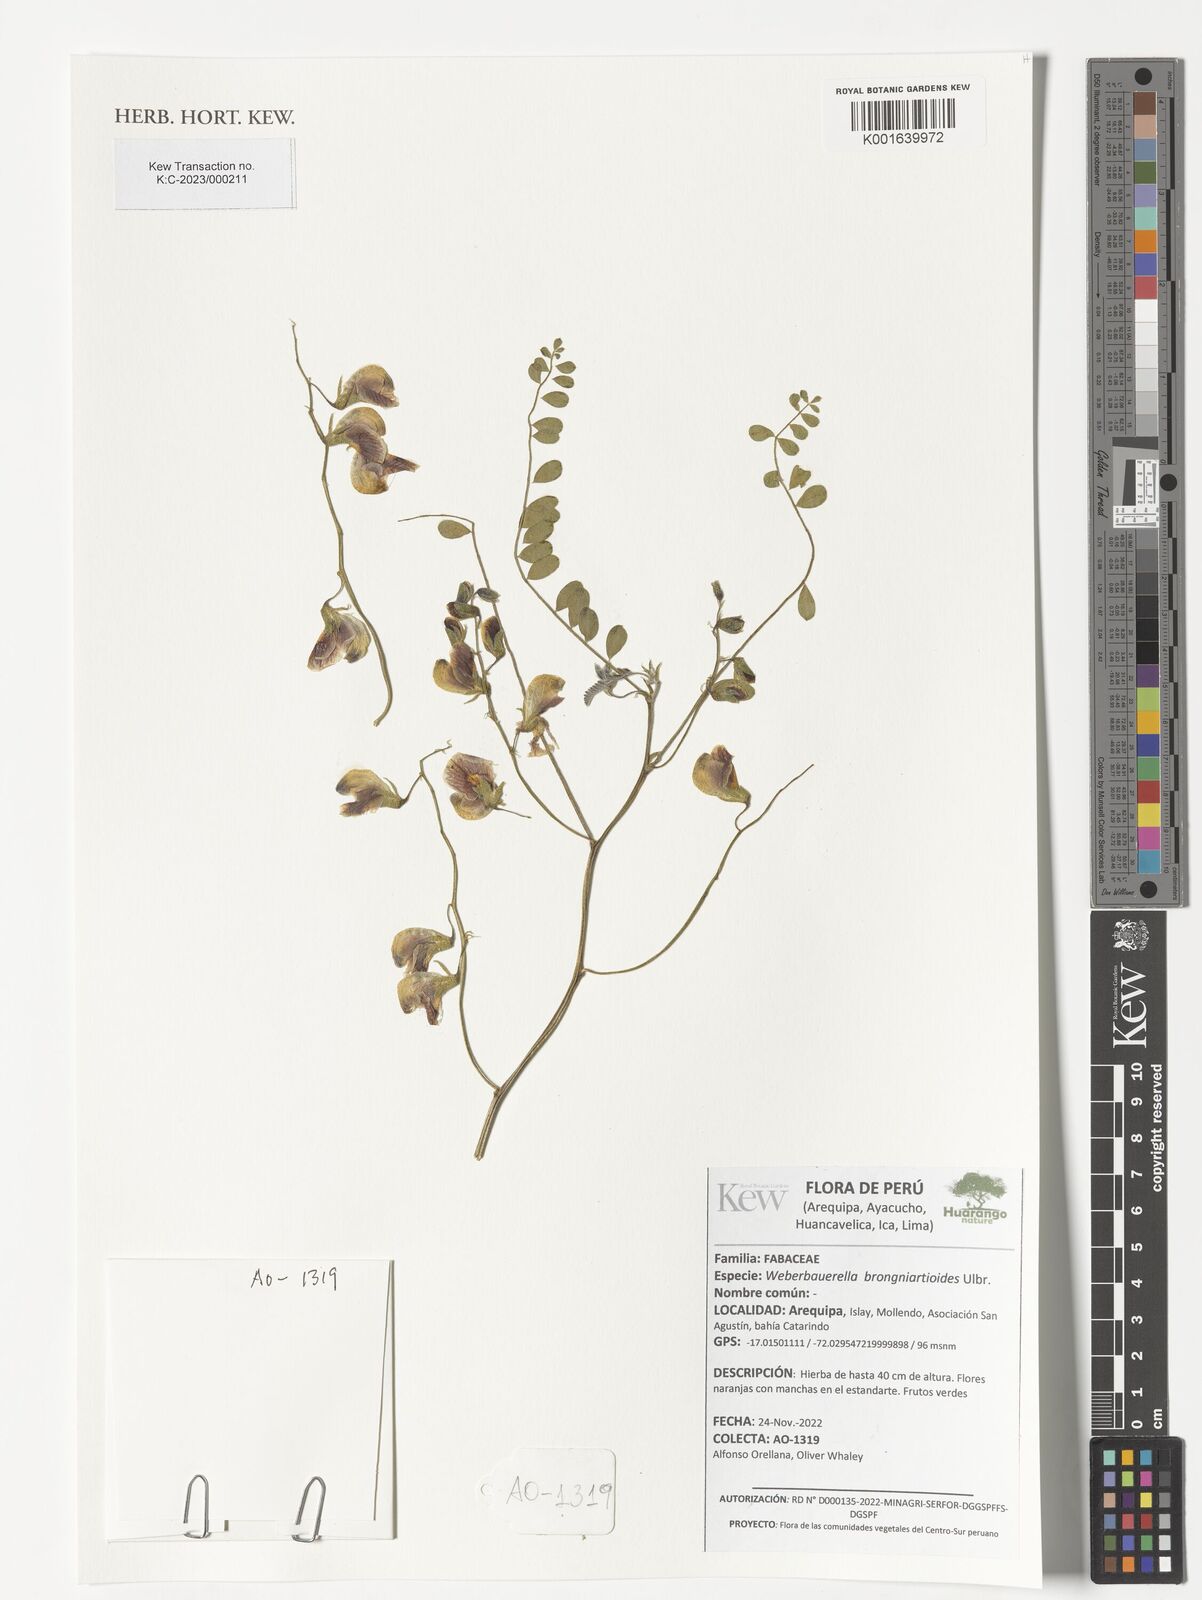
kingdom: Plantae
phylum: Tracheophyta
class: Magnoliopsida
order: Fabales
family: Fabaceae
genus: Weberbauerella
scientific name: Weberbauerella brongniartioides
